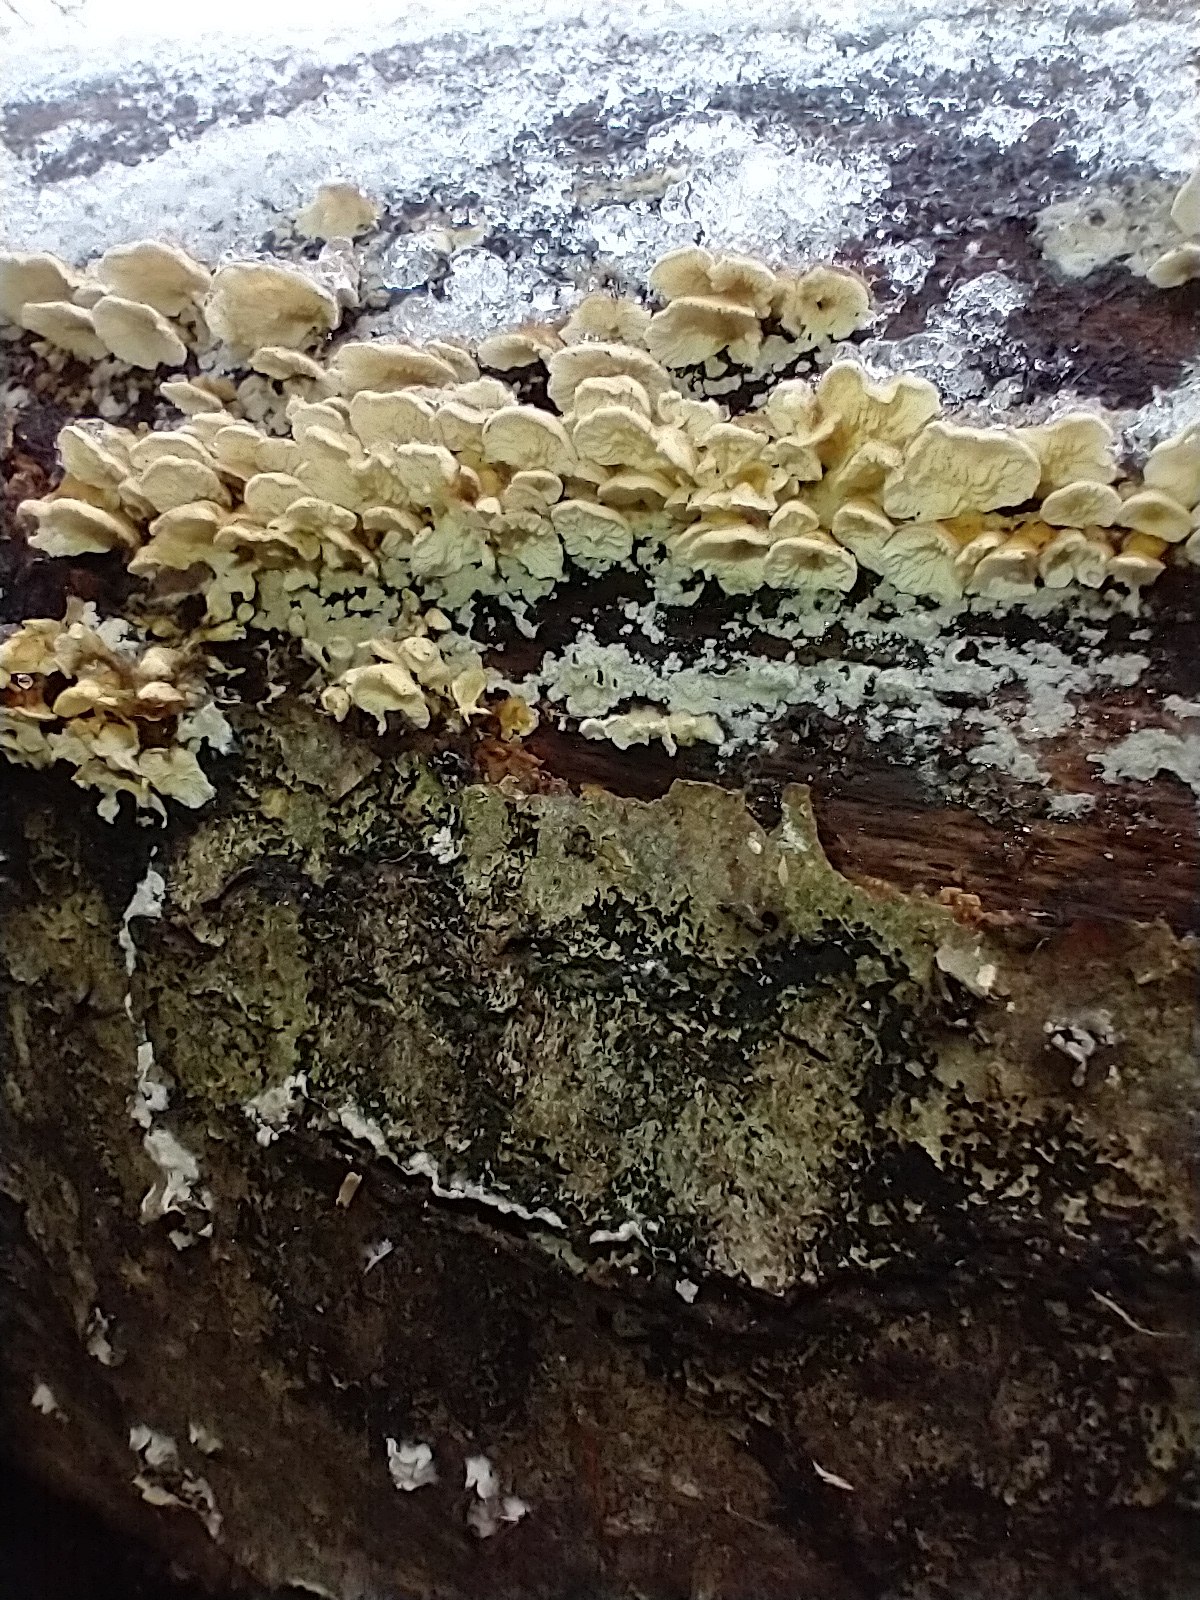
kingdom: Fungi
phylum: Basidiomycota
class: Agaricomycetes
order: Amylocorticiales
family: Amylocorticiaceae
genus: Plicaturopsis
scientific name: Plicaturopsis crispa
